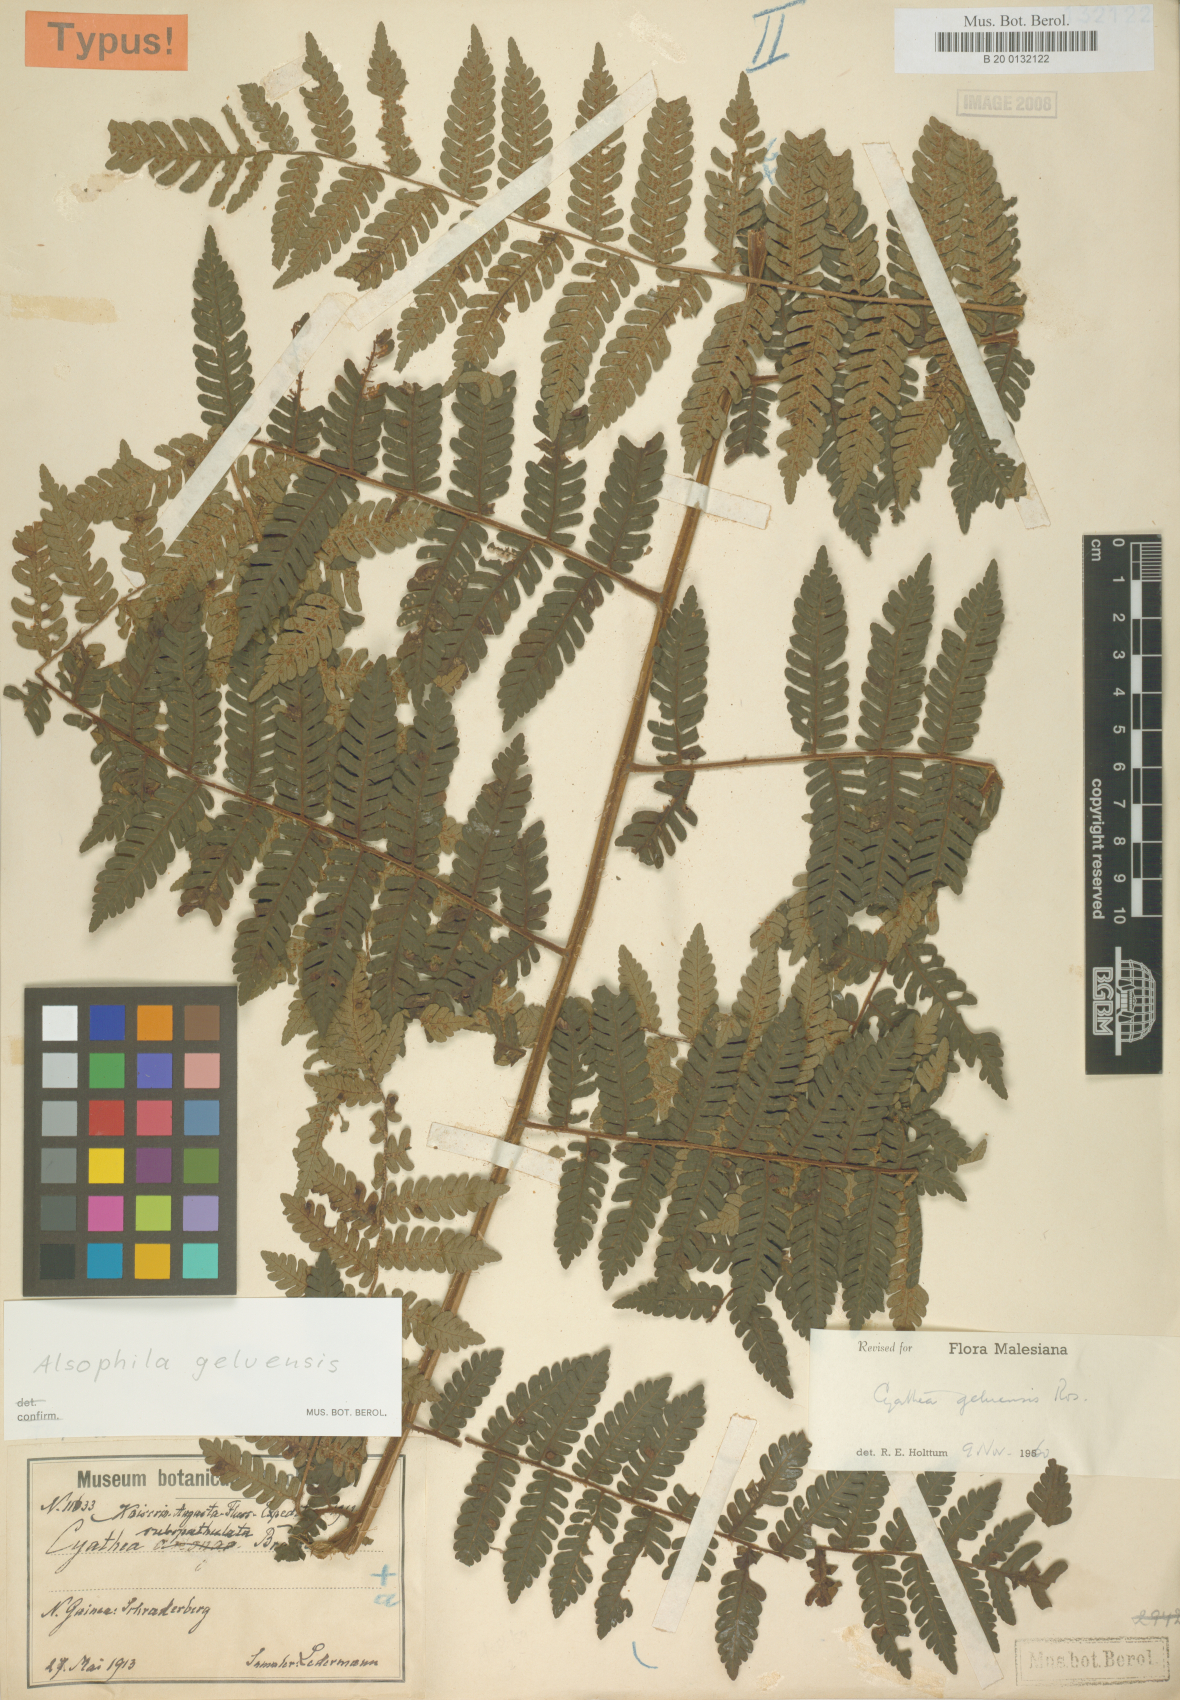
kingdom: Plantae
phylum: Tracheophyta
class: Polypodiopsida
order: Cyatheales
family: Cyatheaceae
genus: Alsophila
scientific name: Alsophila geluensis
